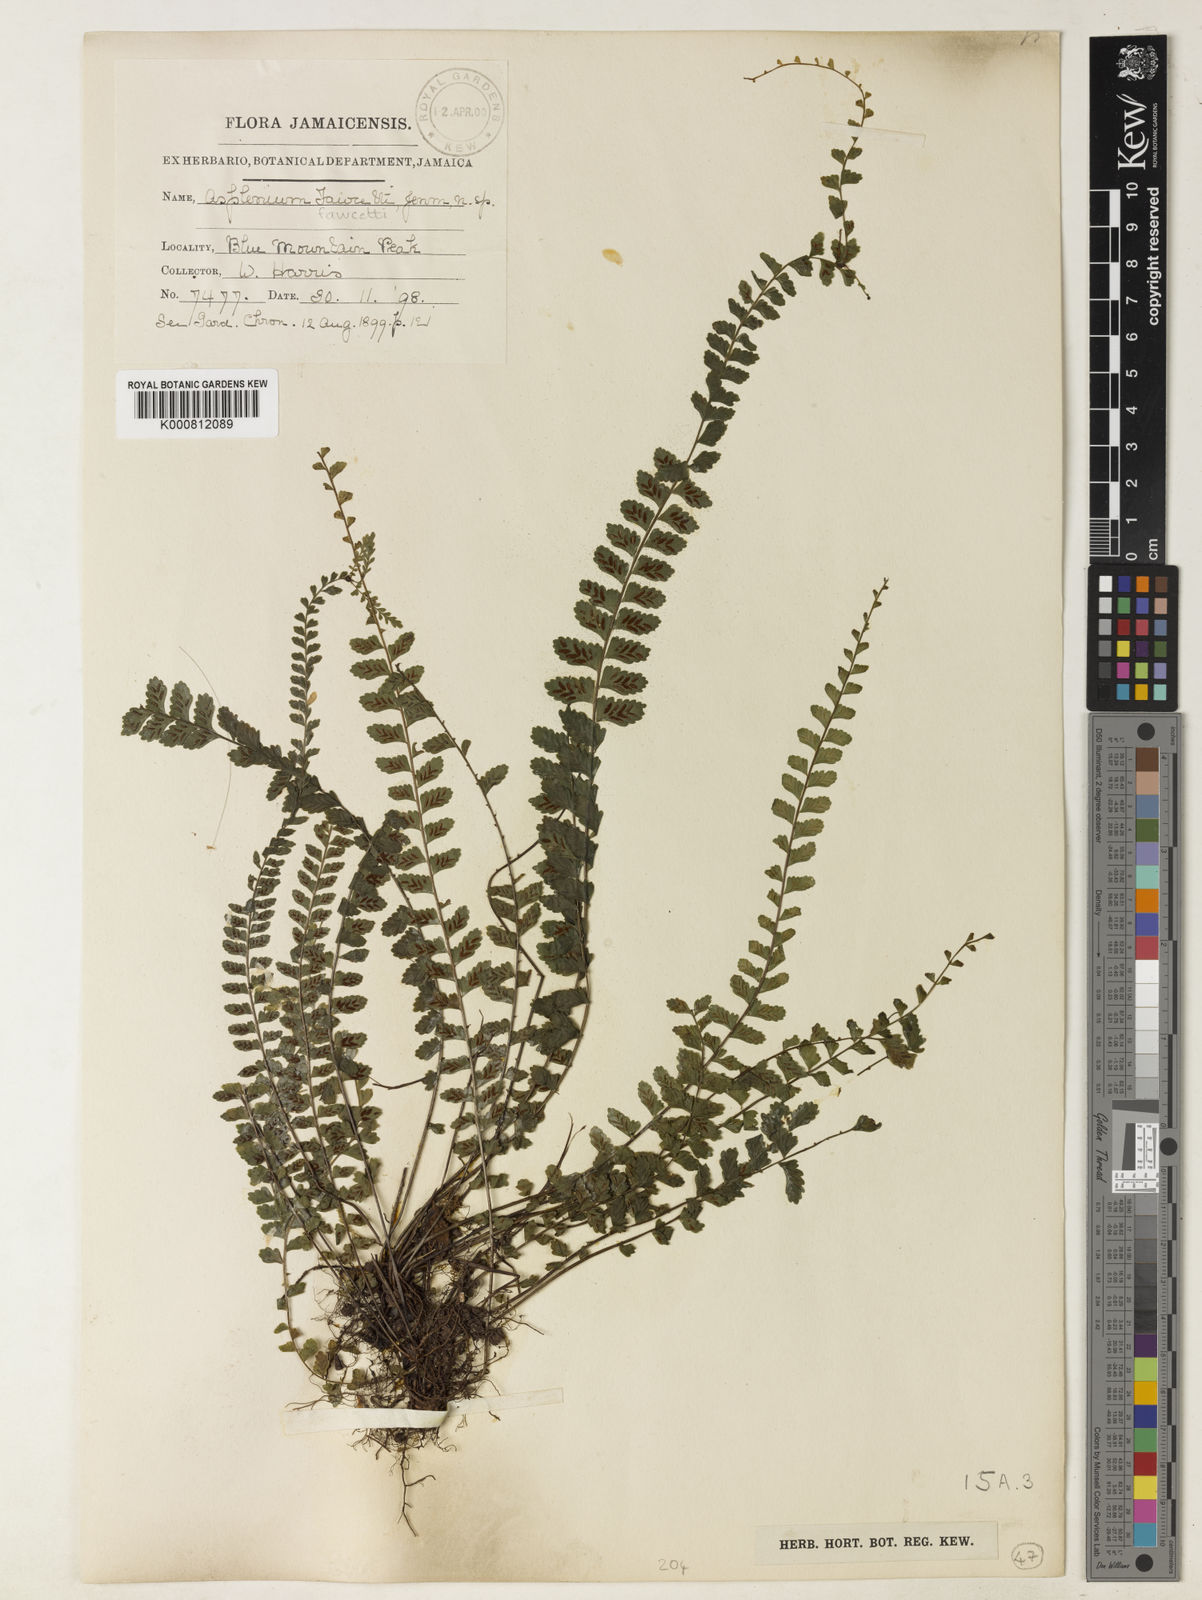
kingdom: Plantae
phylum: Tracheophyta
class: Polypodiopsida
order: Polypodiales
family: Aspleniaceae
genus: Asplenium
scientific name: Asplenium fawcettii
